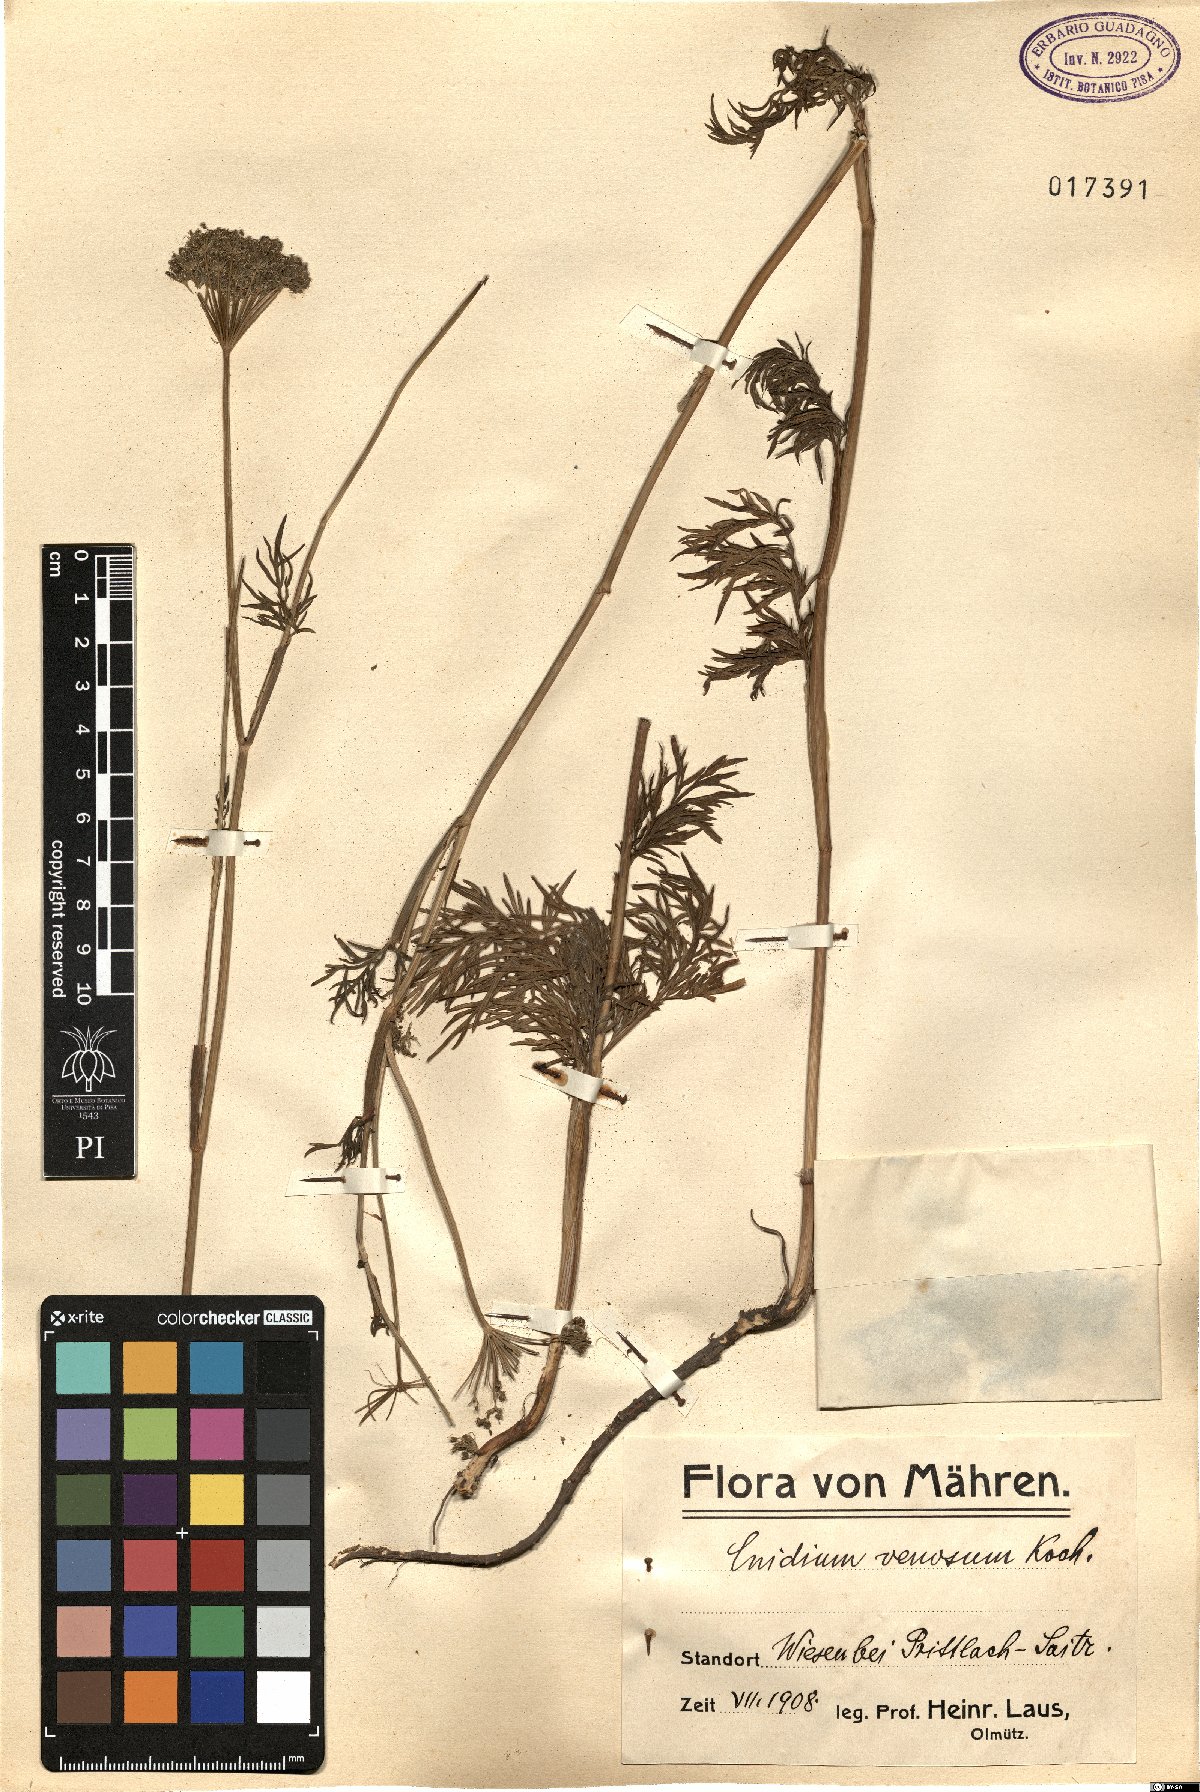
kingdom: Plantae
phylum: Tracheophyta
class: Magnoliopsida
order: Apiales
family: Apiaceae
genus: Kadenia
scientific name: Kadenia dubia
